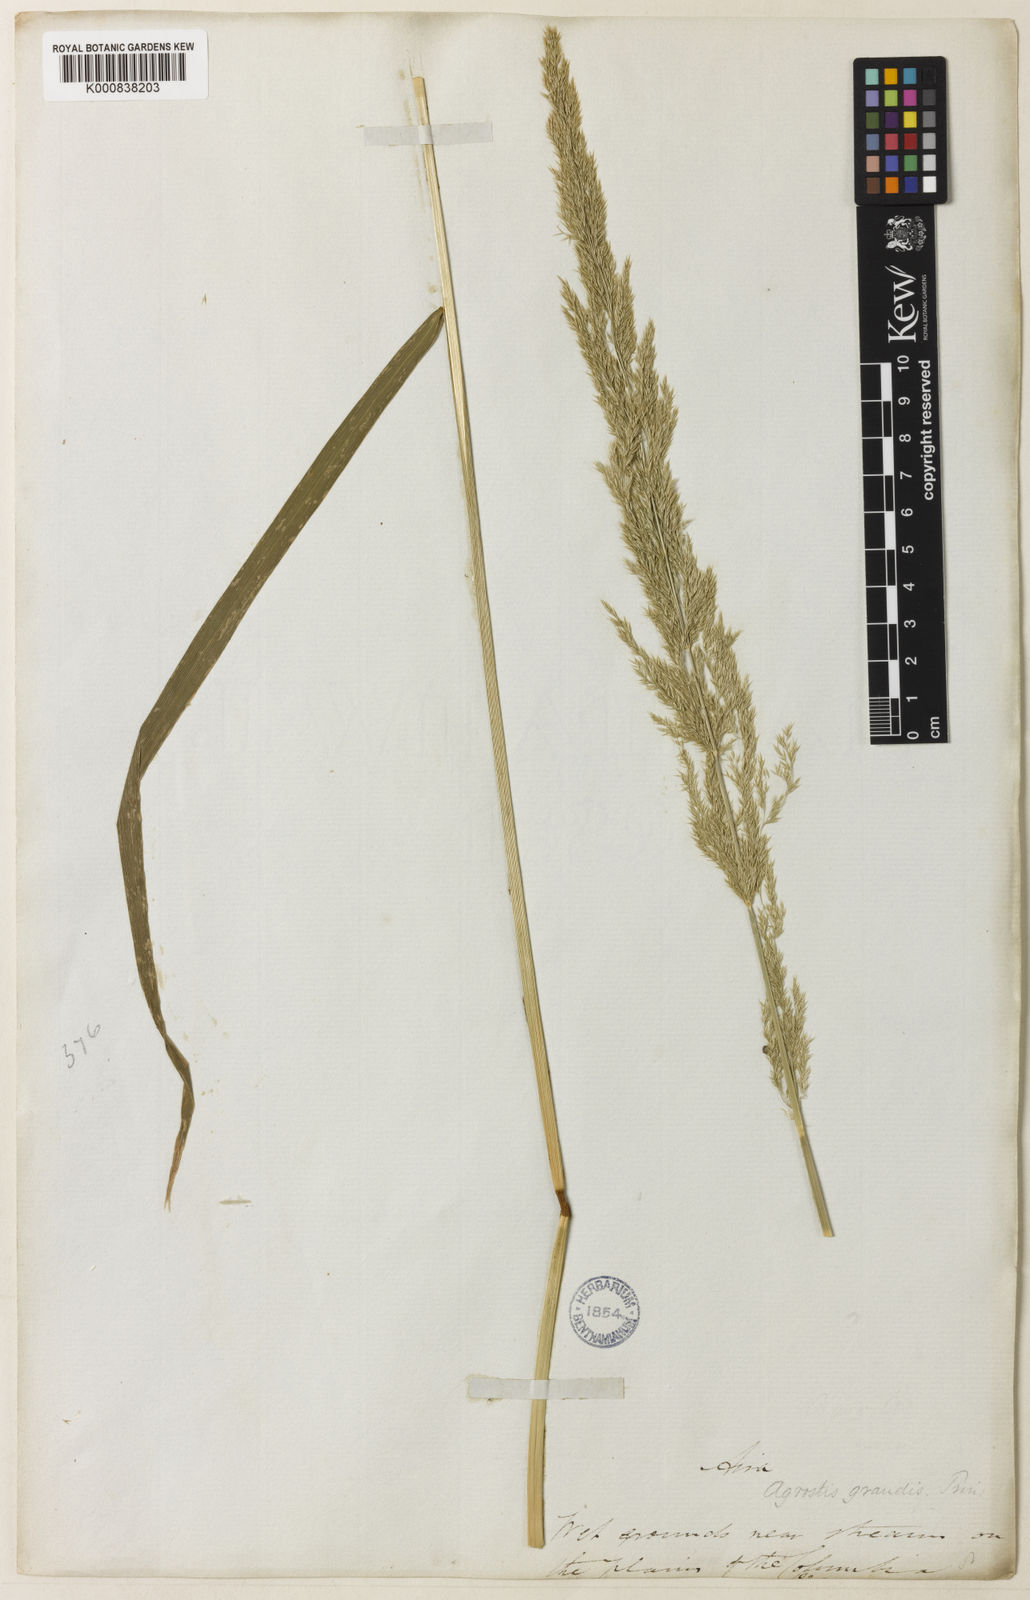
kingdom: Plantae
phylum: Tracheophyta
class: Liliopsida
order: Poales
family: Poaceae
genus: Agrostis
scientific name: Agrostis exarata
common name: Spike bent
